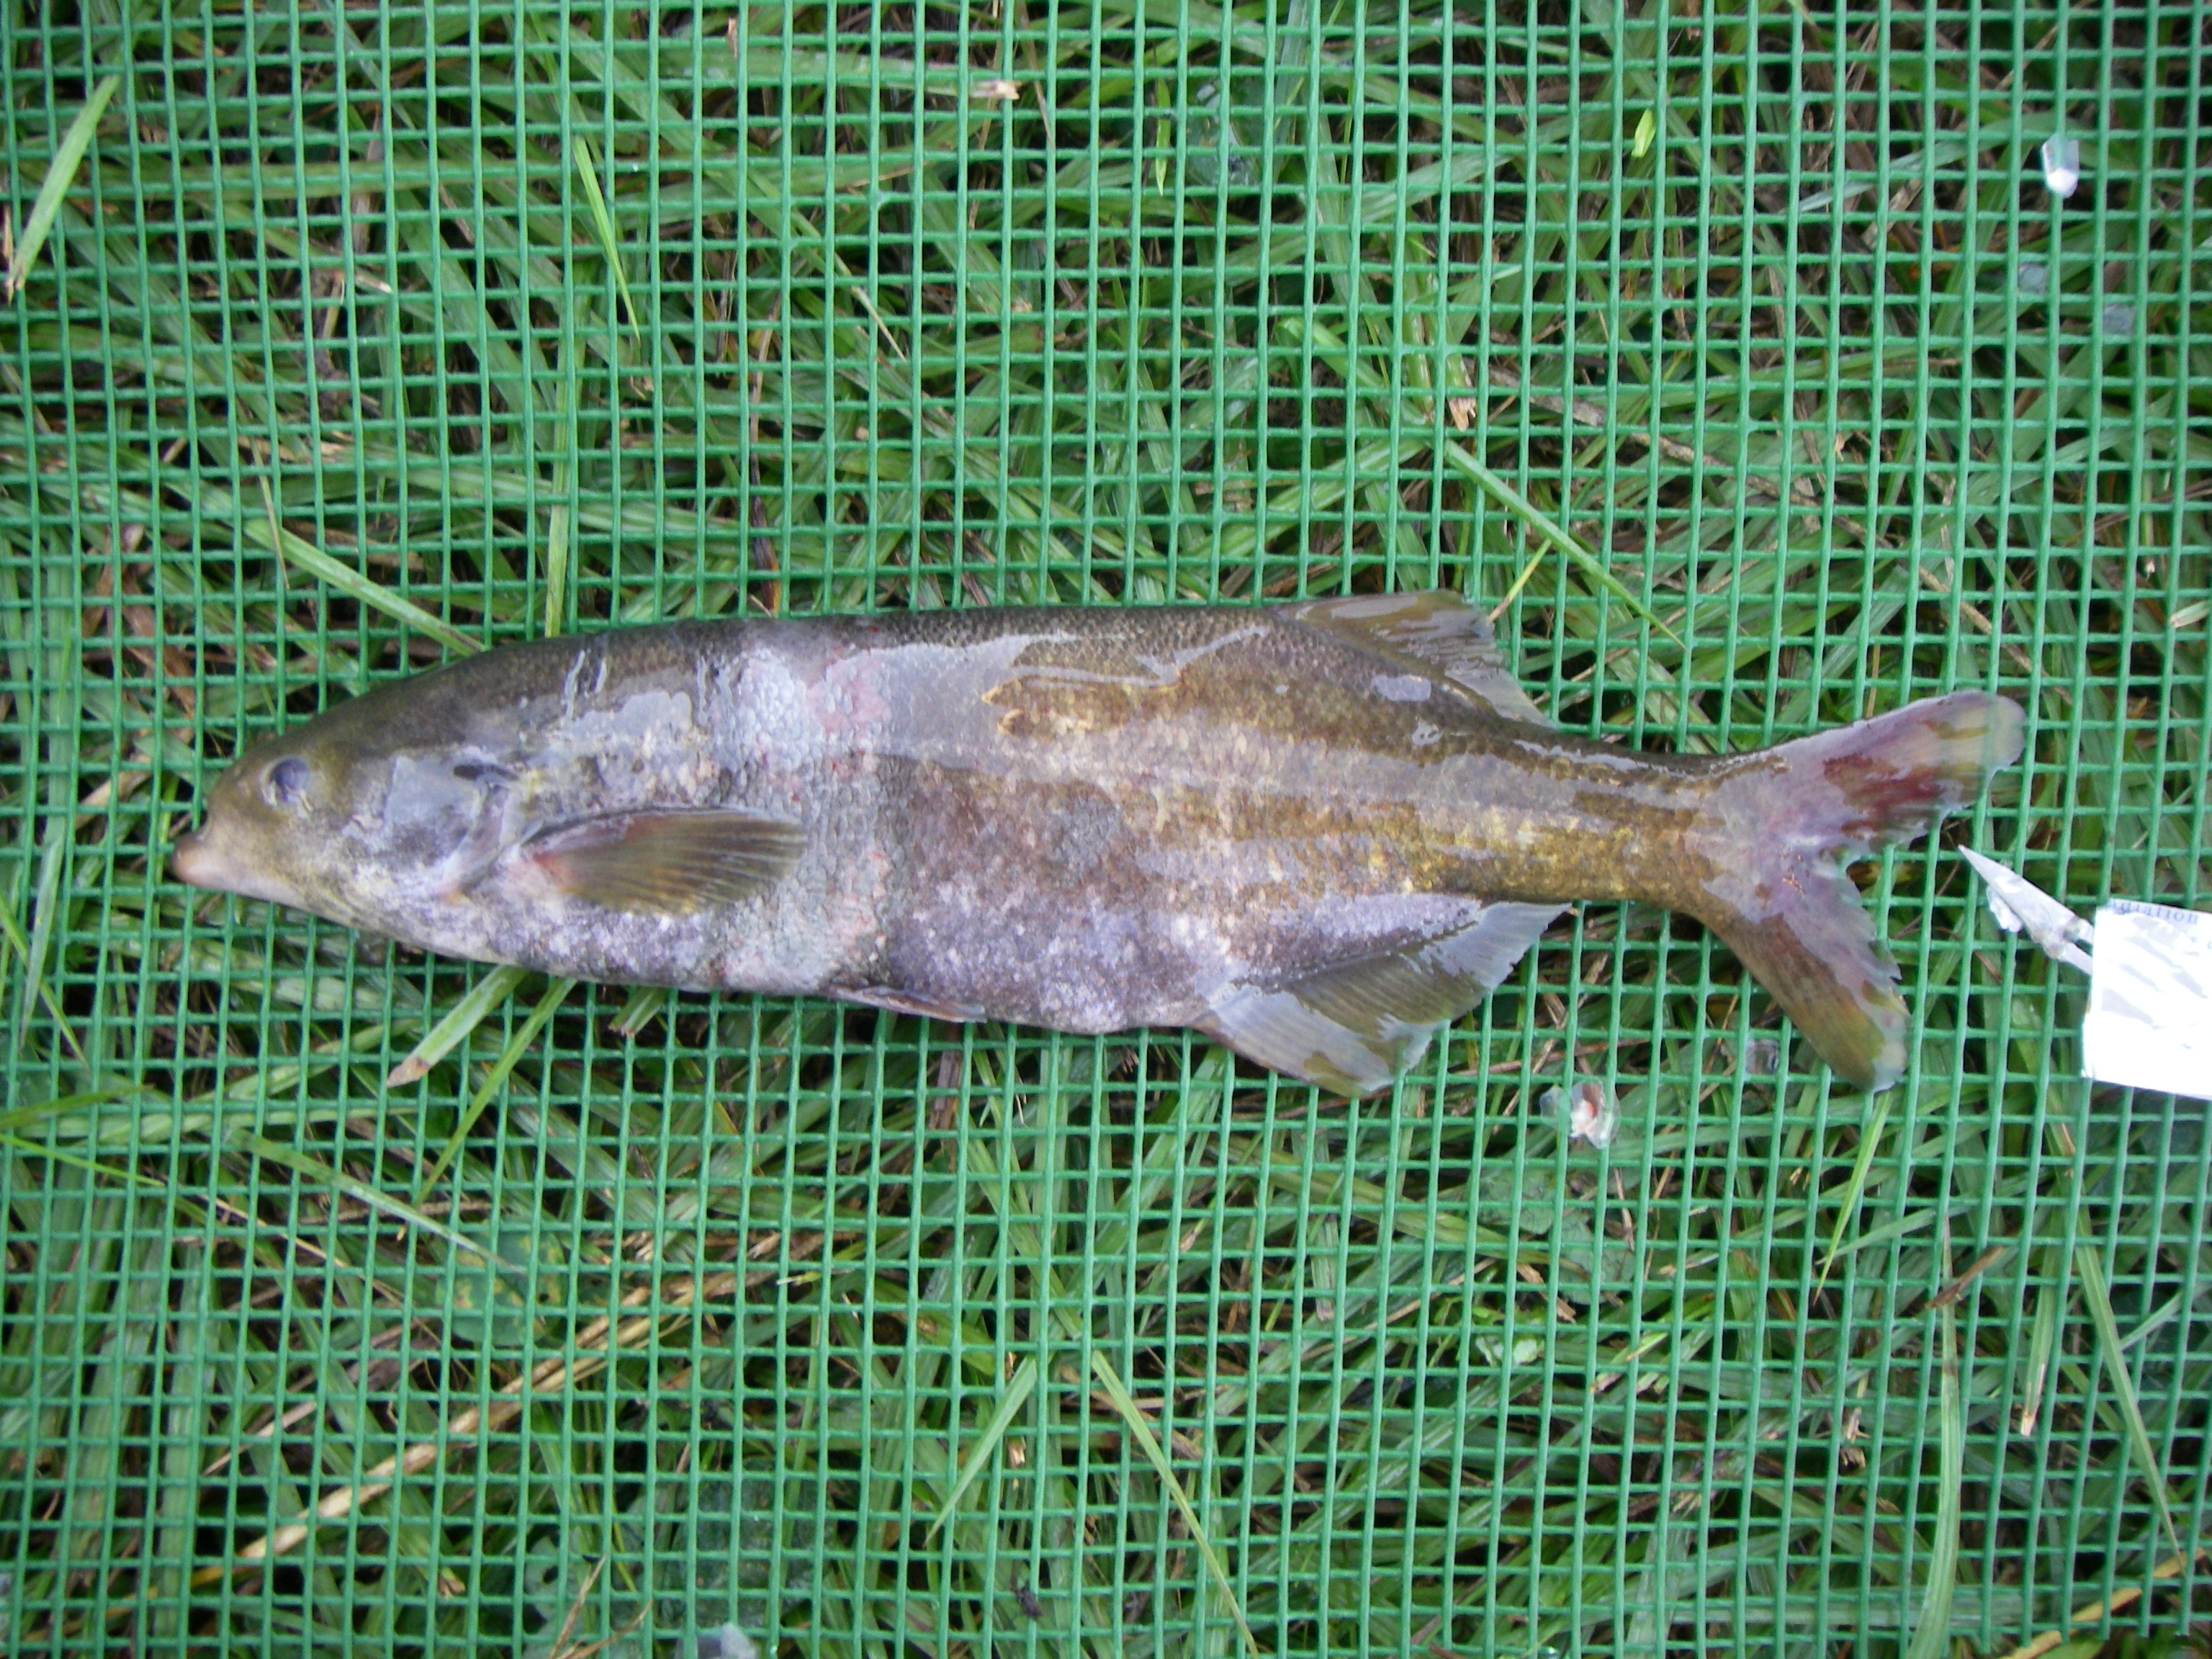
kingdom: Animalia
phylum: Chordata
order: Osteoglossiformes
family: Mormyridae
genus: Marcusenius
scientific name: Marcusenius macrolepidotus
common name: Bulldog
